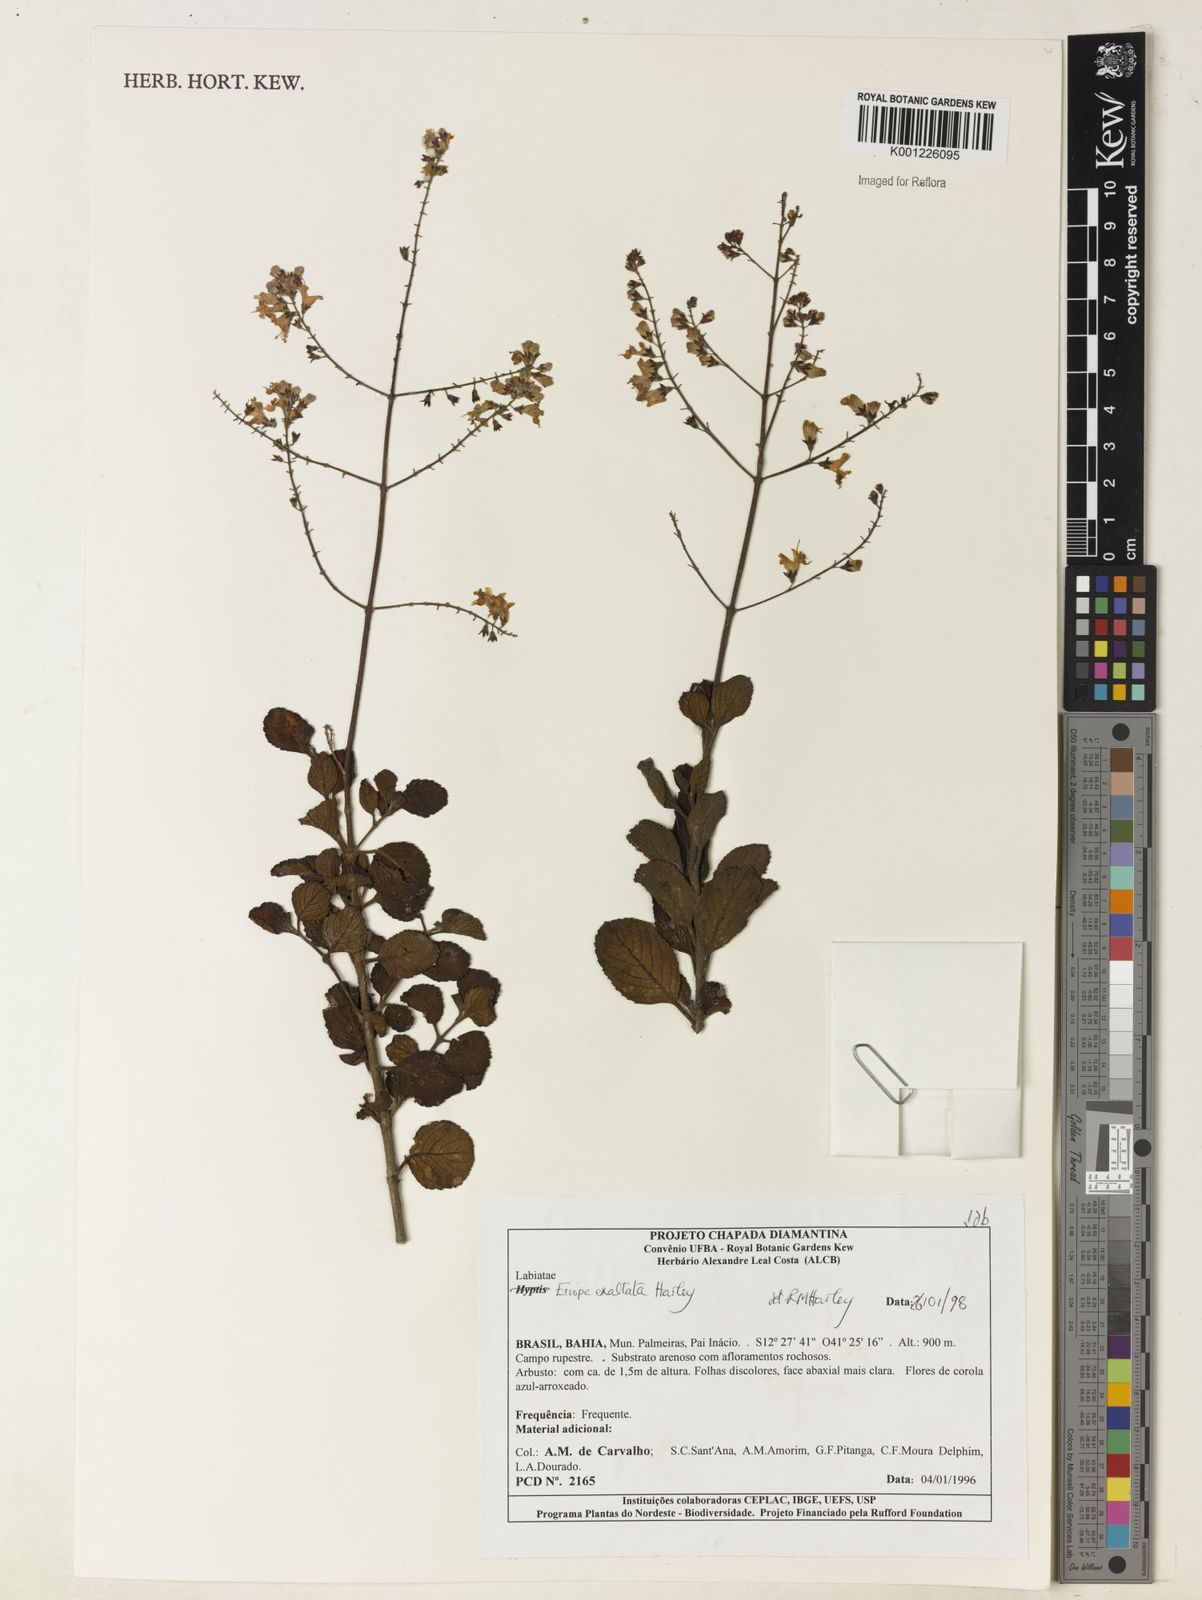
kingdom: Plantae
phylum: Tracheophyta
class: Magnoliopsida
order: Lamiales
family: Lamiaceae
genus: Eriope
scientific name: Eriope exaltata
